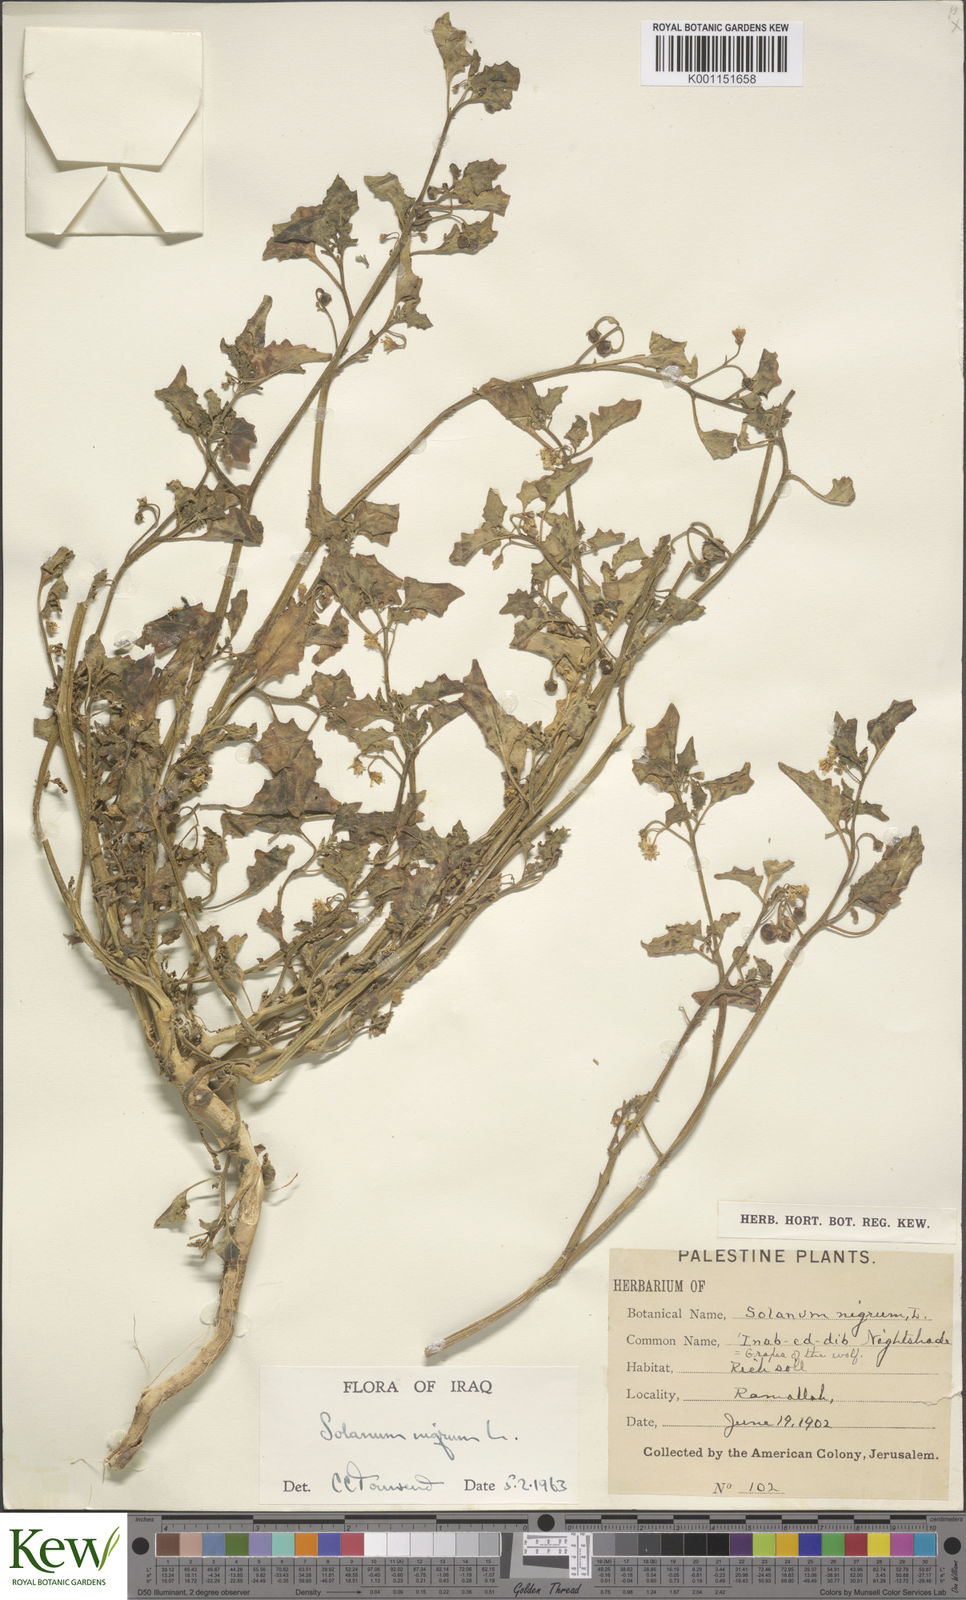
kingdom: Plantae
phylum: Tracheophyta
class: Magnoliopsida
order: Solanales
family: Solanaceae
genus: Solanum
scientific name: Solanum villosum
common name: Red nightshade
